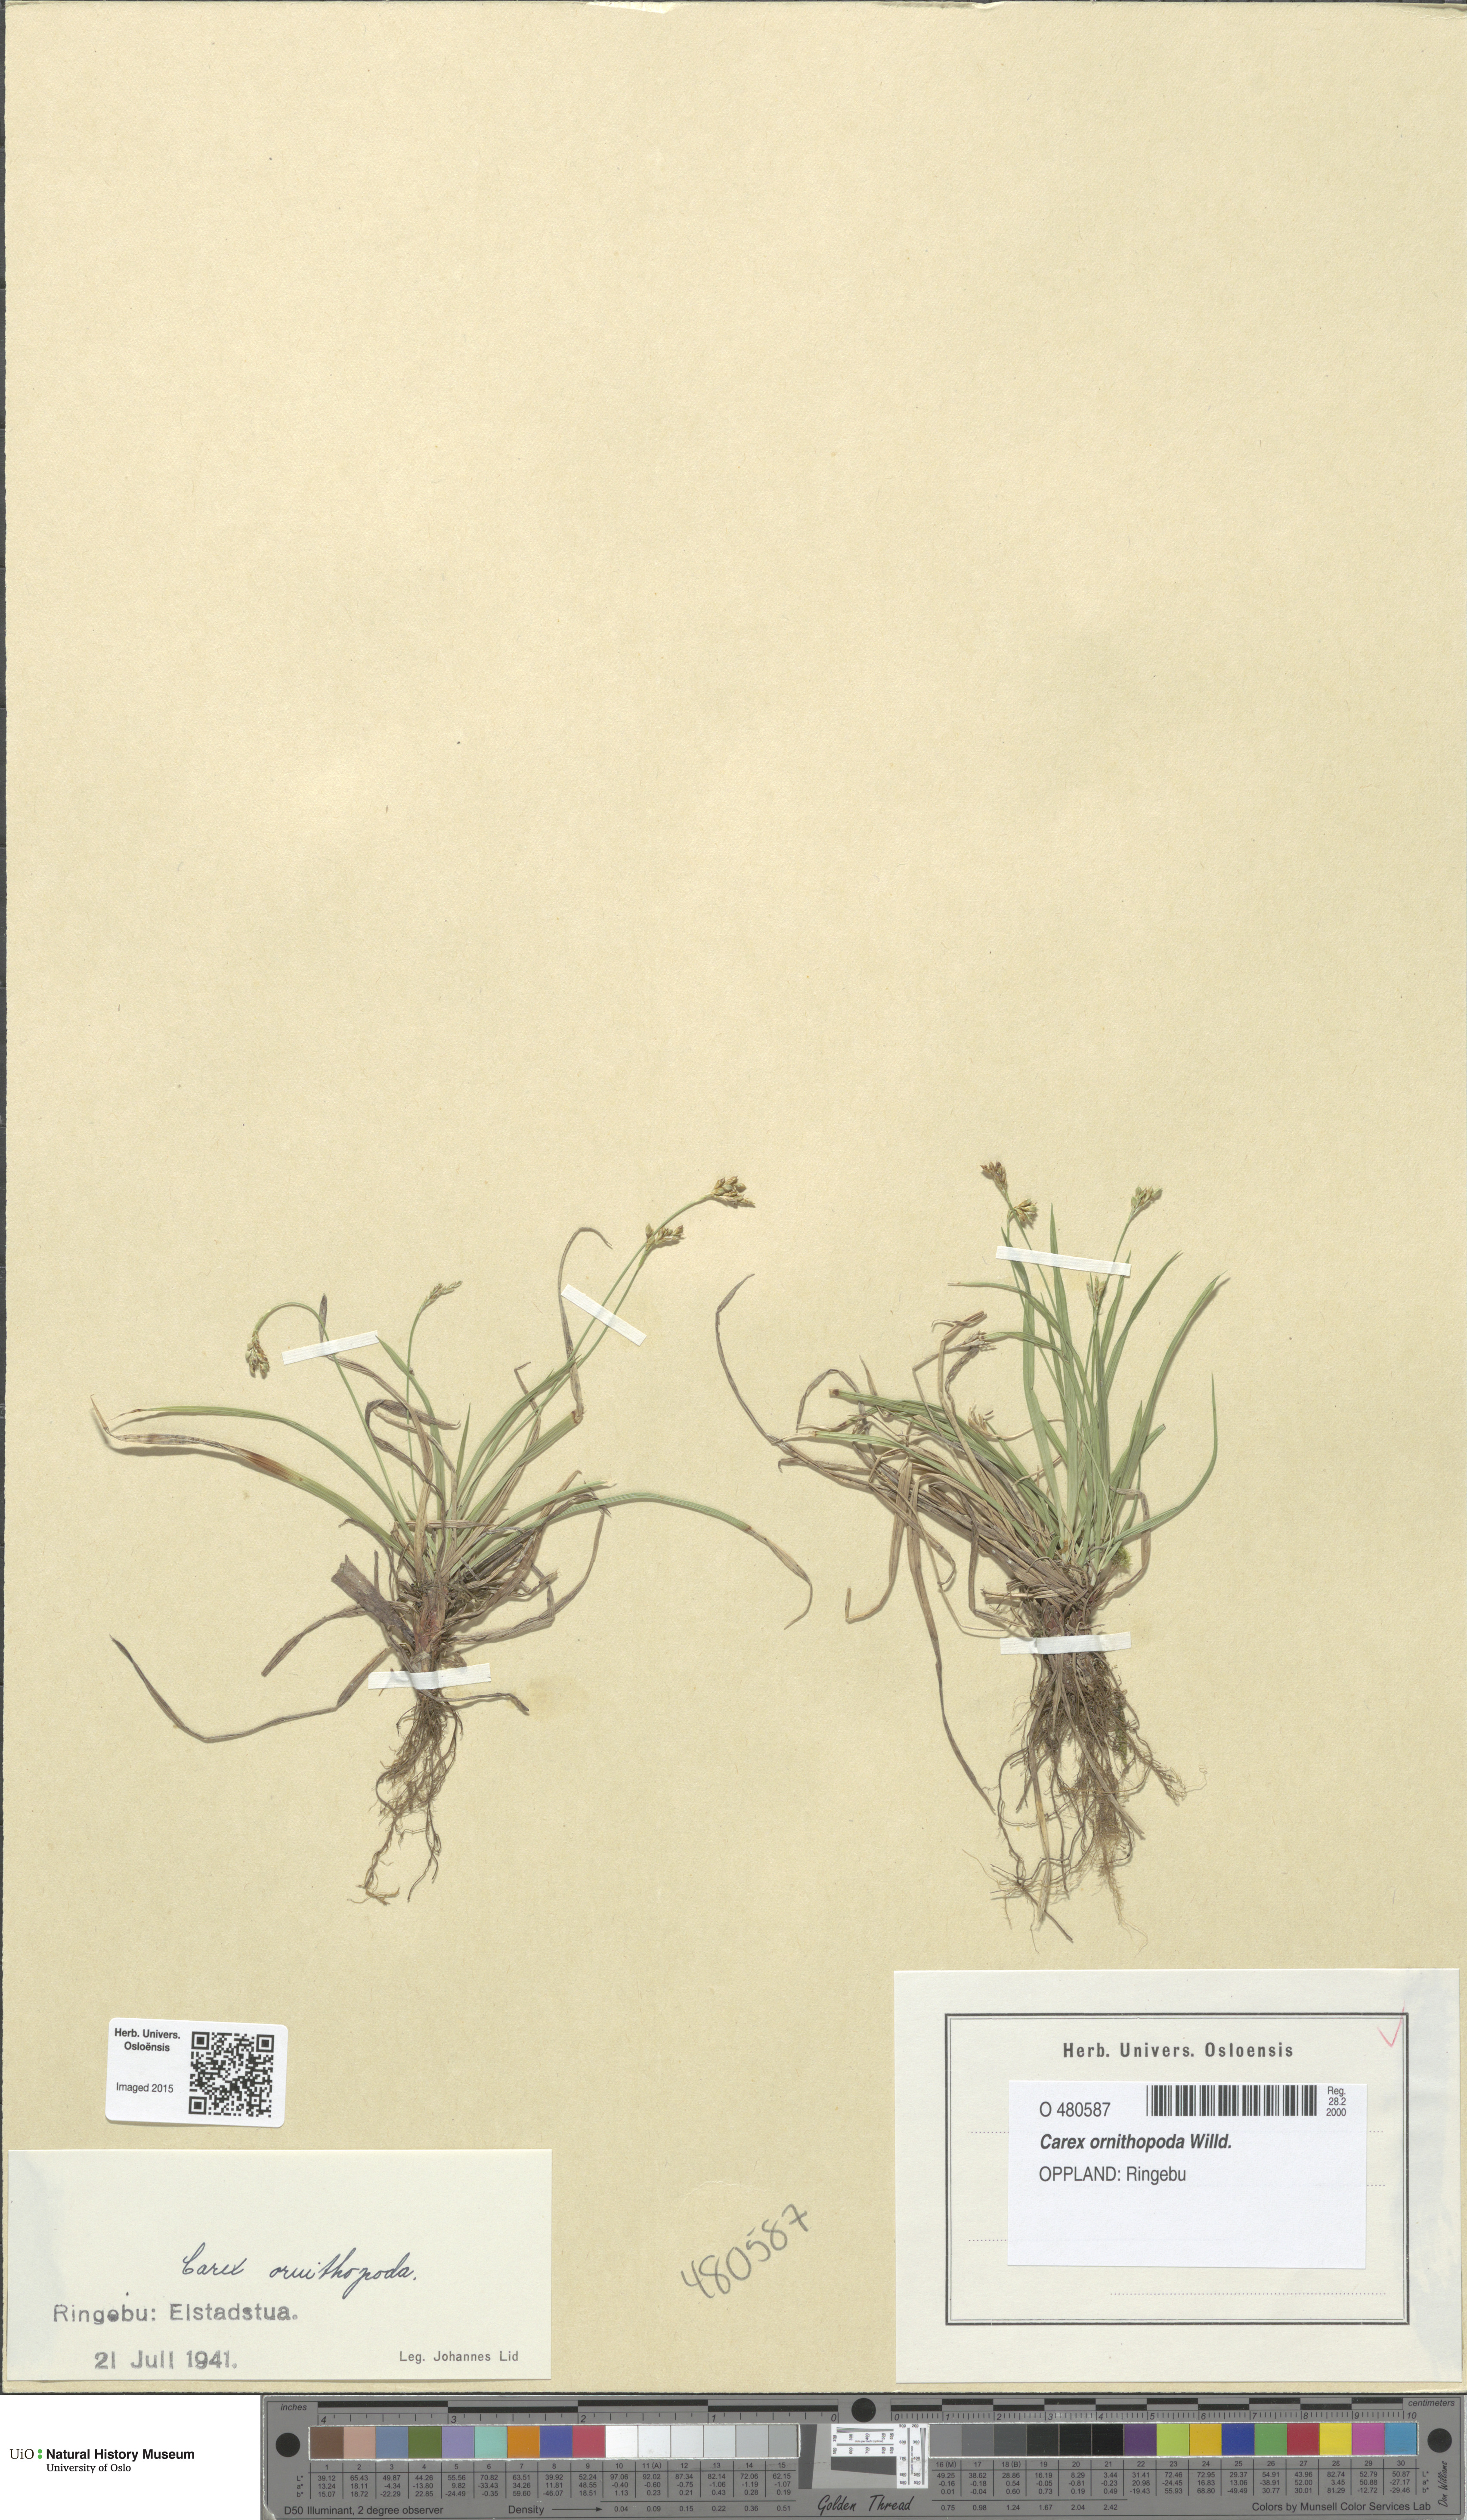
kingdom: Plantae
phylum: Tracheophyta
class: Liliopsida
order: Poales
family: Cyperaceae
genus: Carex
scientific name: Carex ornithopoda
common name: Bird's-foot sedge
